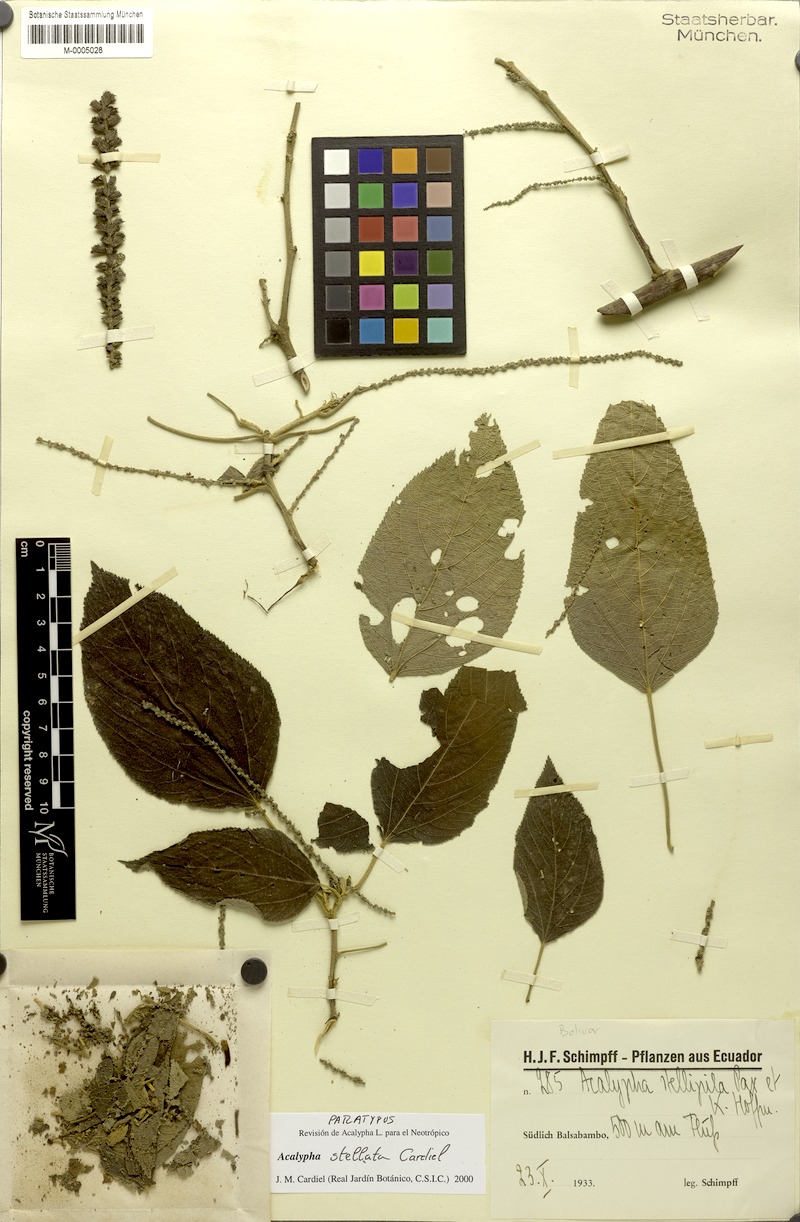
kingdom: Plantae
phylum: Tracheophyta
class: Magnoliopsida
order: Malpighiales
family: Euphorbiaceae
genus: Acalypha
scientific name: Acalypha stellata
